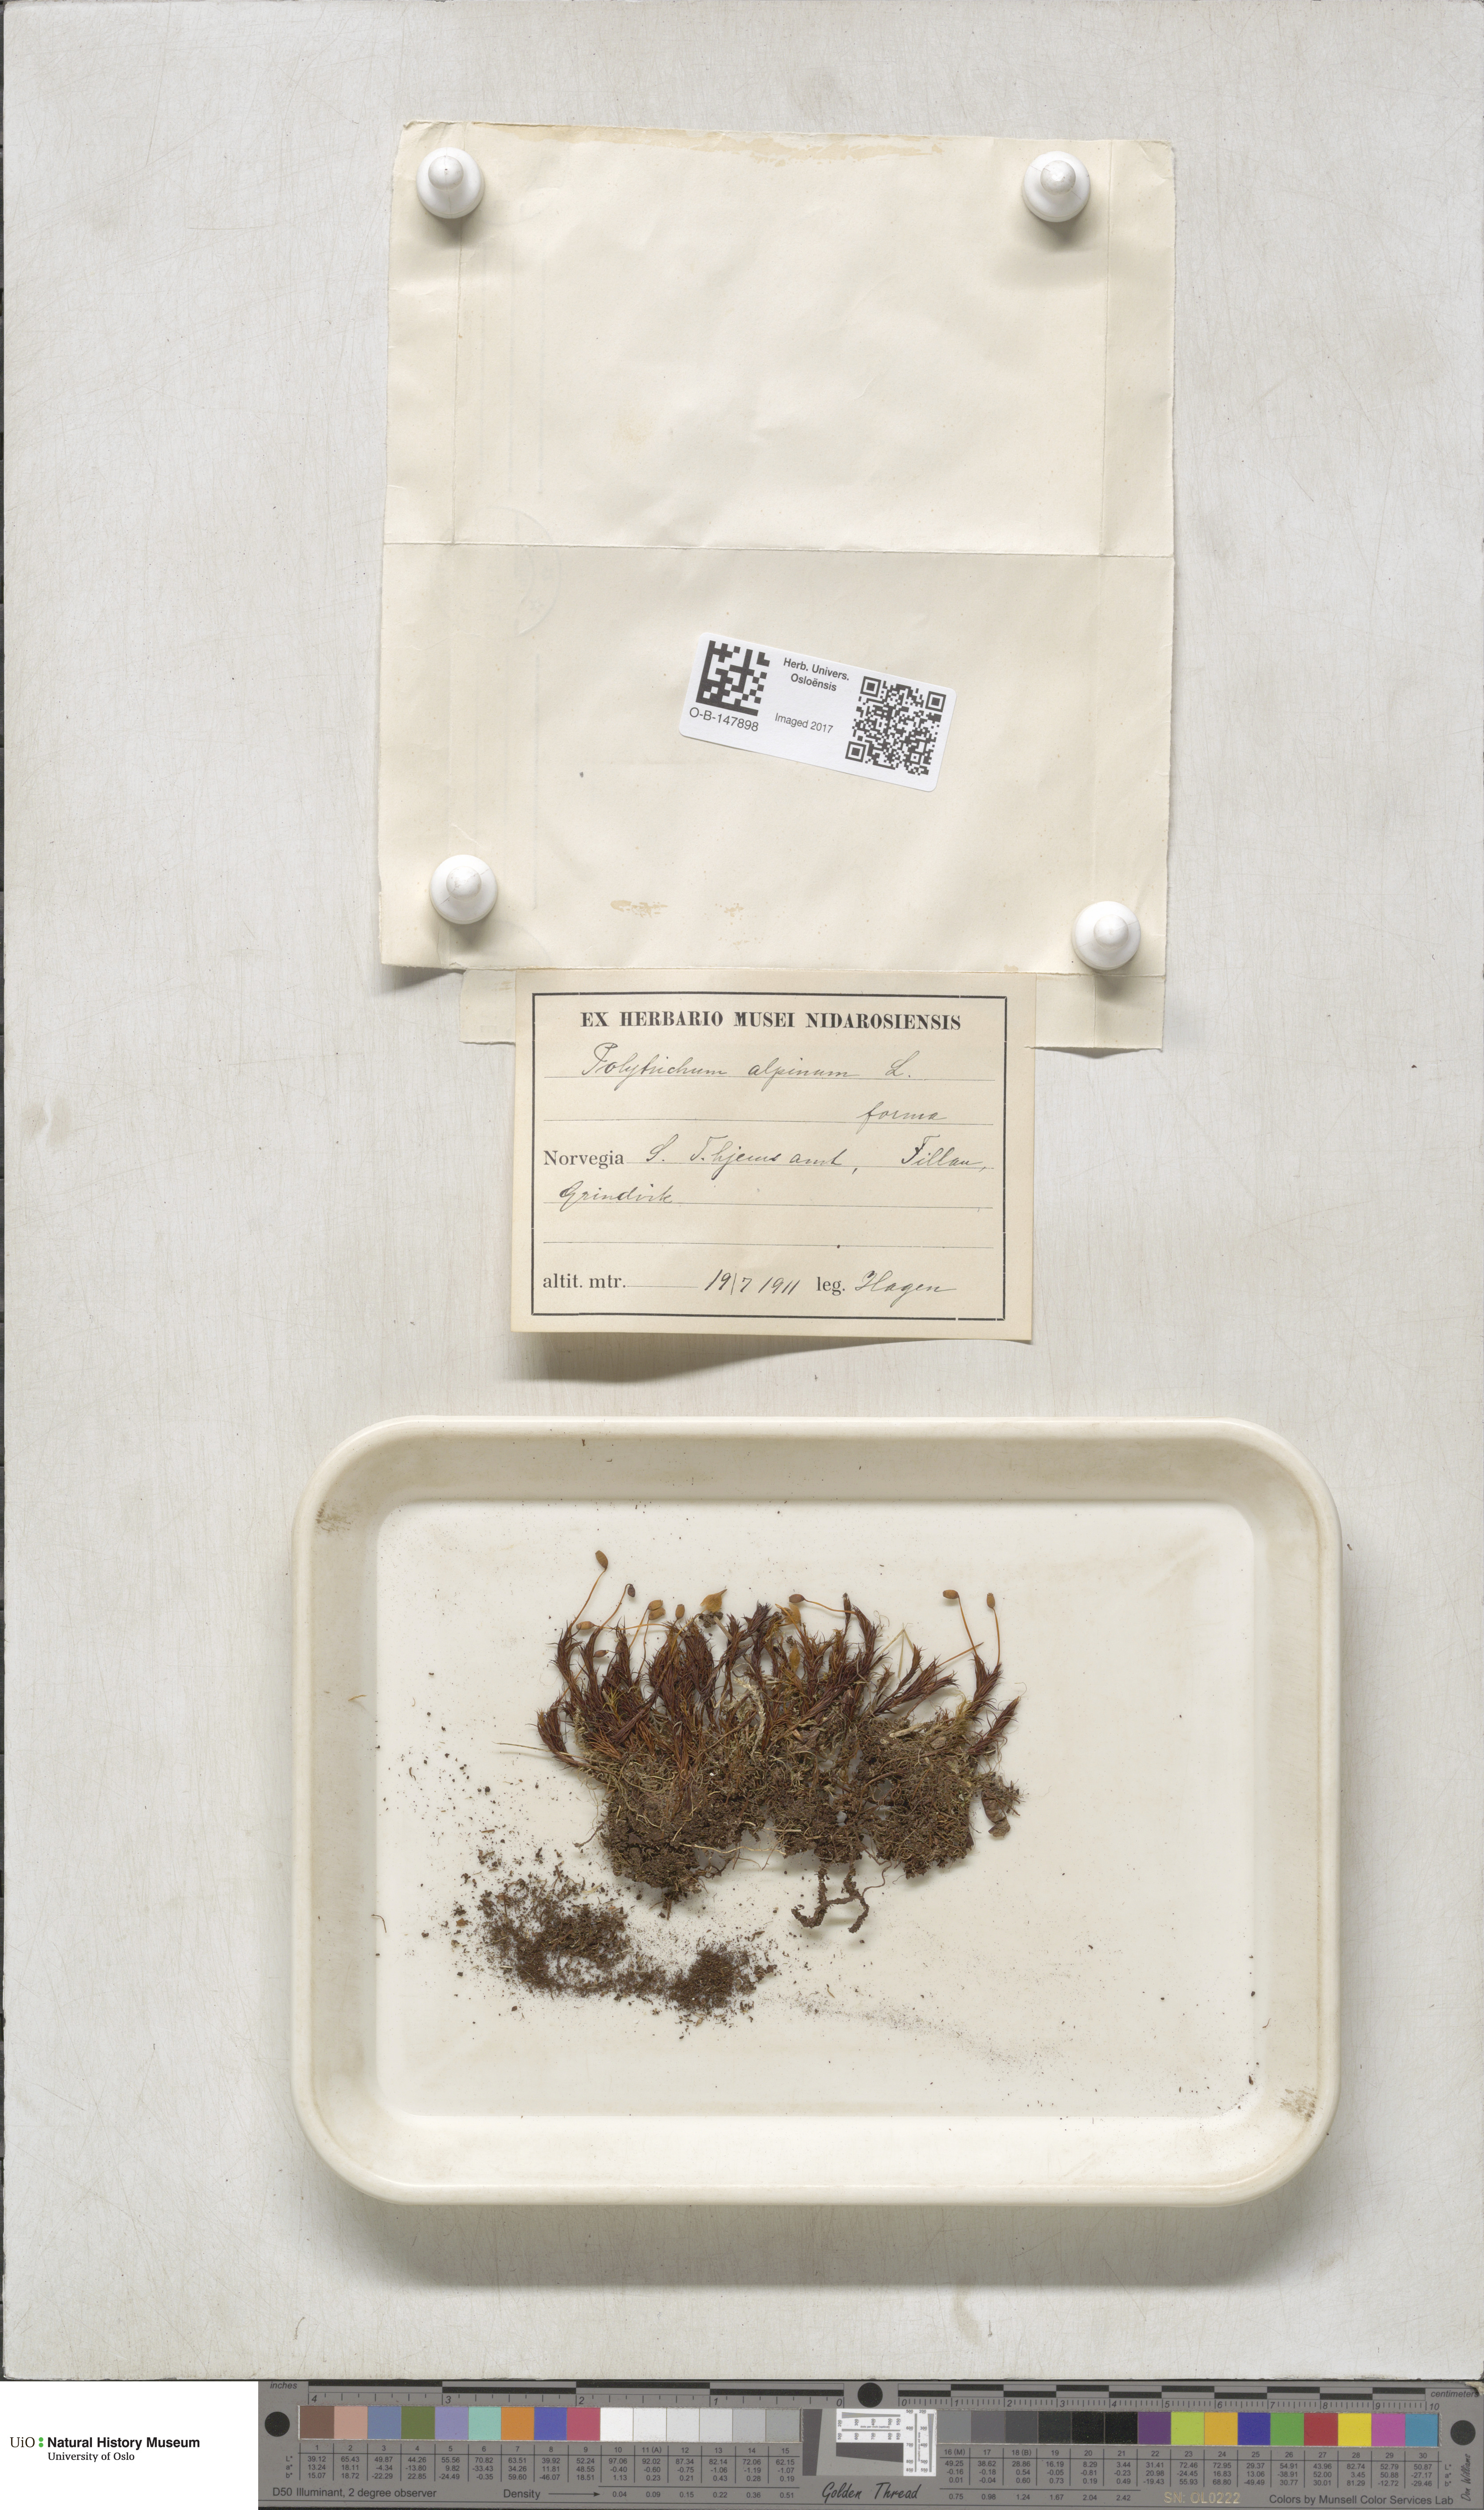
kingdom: Plantae
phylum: Bryophyta
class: Polytrichopsida
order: Polytrichales
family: Polytrichaceae
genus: Polytrichastrum
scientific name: Polytrichastrum alpinum
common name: Alpine haircap
